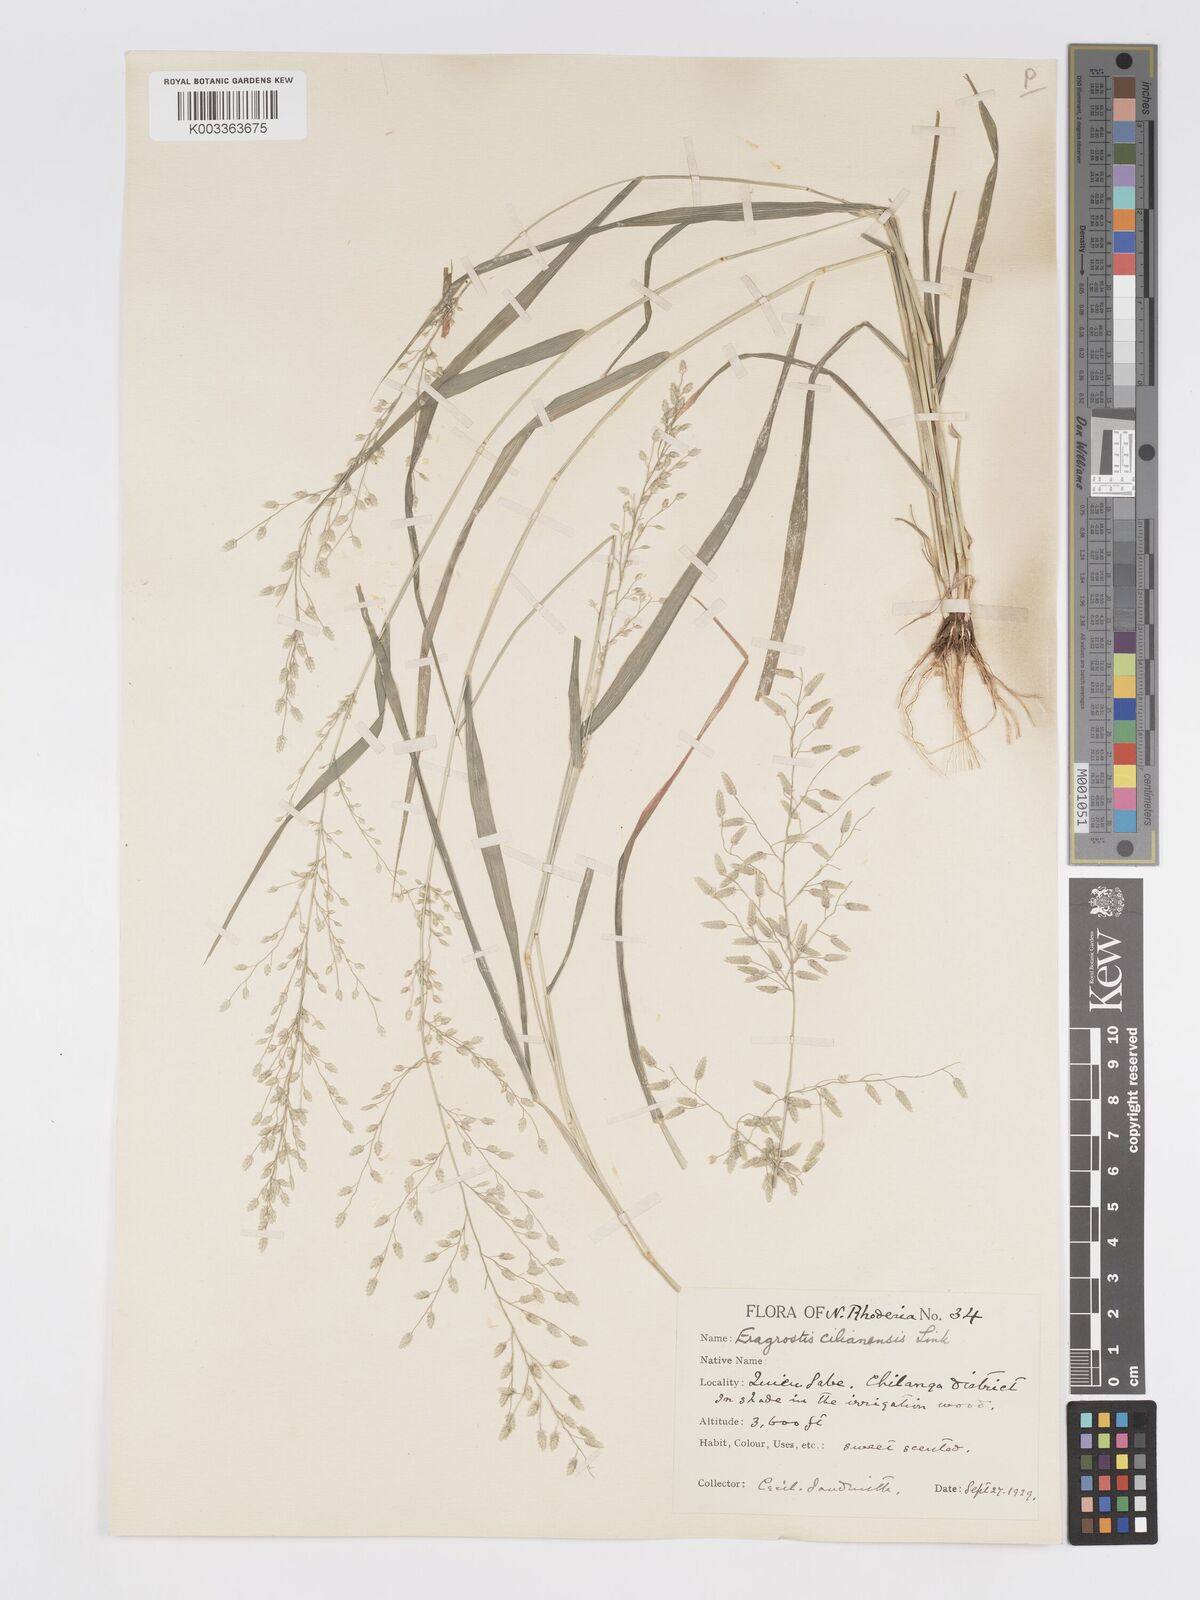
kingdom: Plantae
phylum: Tracheophyta
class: Liliopsida
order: Poales
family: Poaceae
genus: Eragrostis
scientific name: Eragrostis cilianensis
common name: Stinkgrass
